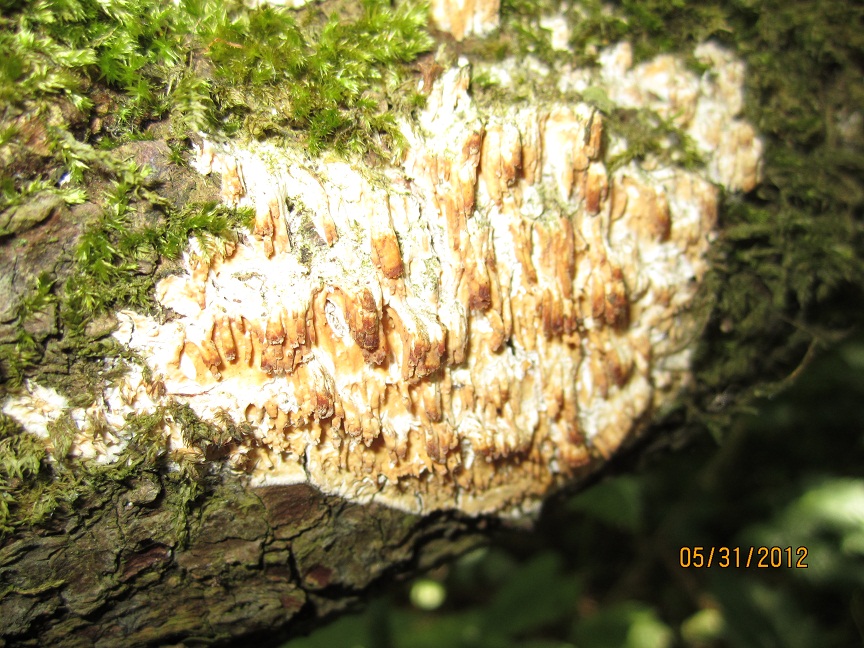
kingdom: Fungi
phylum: Basidiomycota
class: Agaricomycetes
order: Hymenochaetales
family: Schizoporaceae
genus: Xylodon
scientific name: Xylodon radula
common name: grovtandet kalkskind
